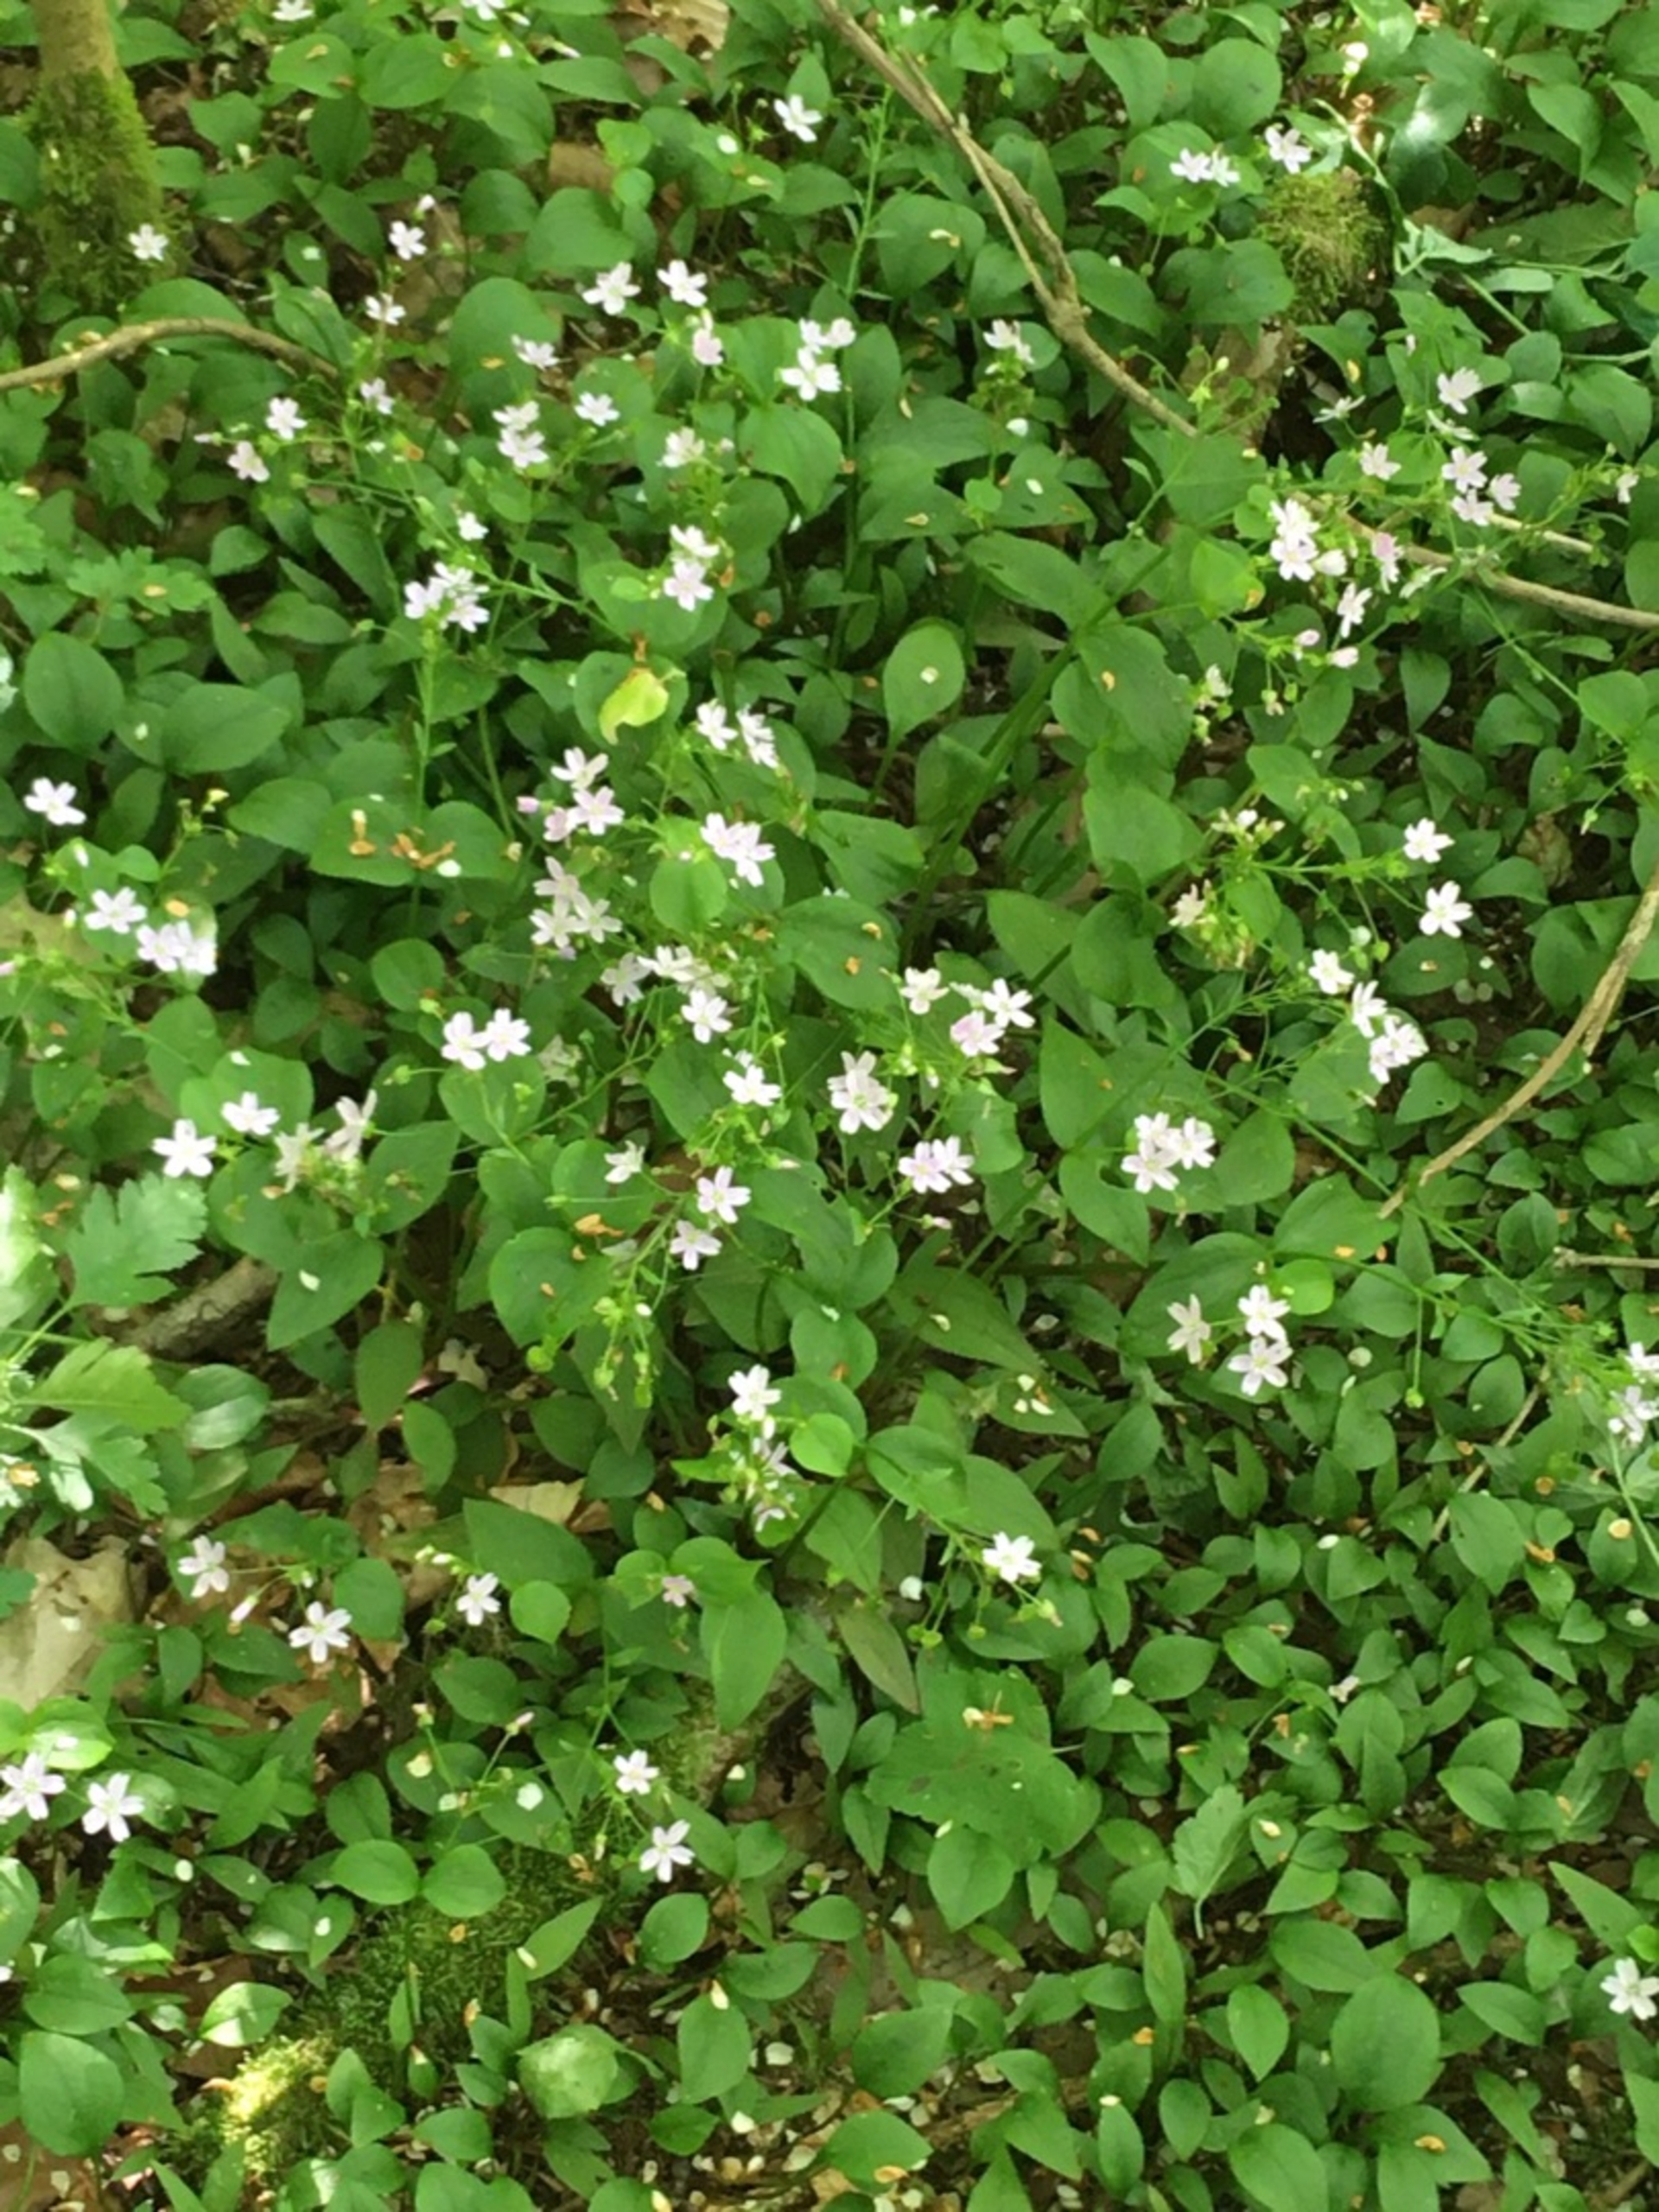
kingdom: Plantae
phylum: Tracheophyta
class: Magnoliopsida
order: Caryophyllales
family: Montiaceae
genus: Claytonia
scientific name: Claytonia sibirica
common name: Sibirisk vinterportulak
